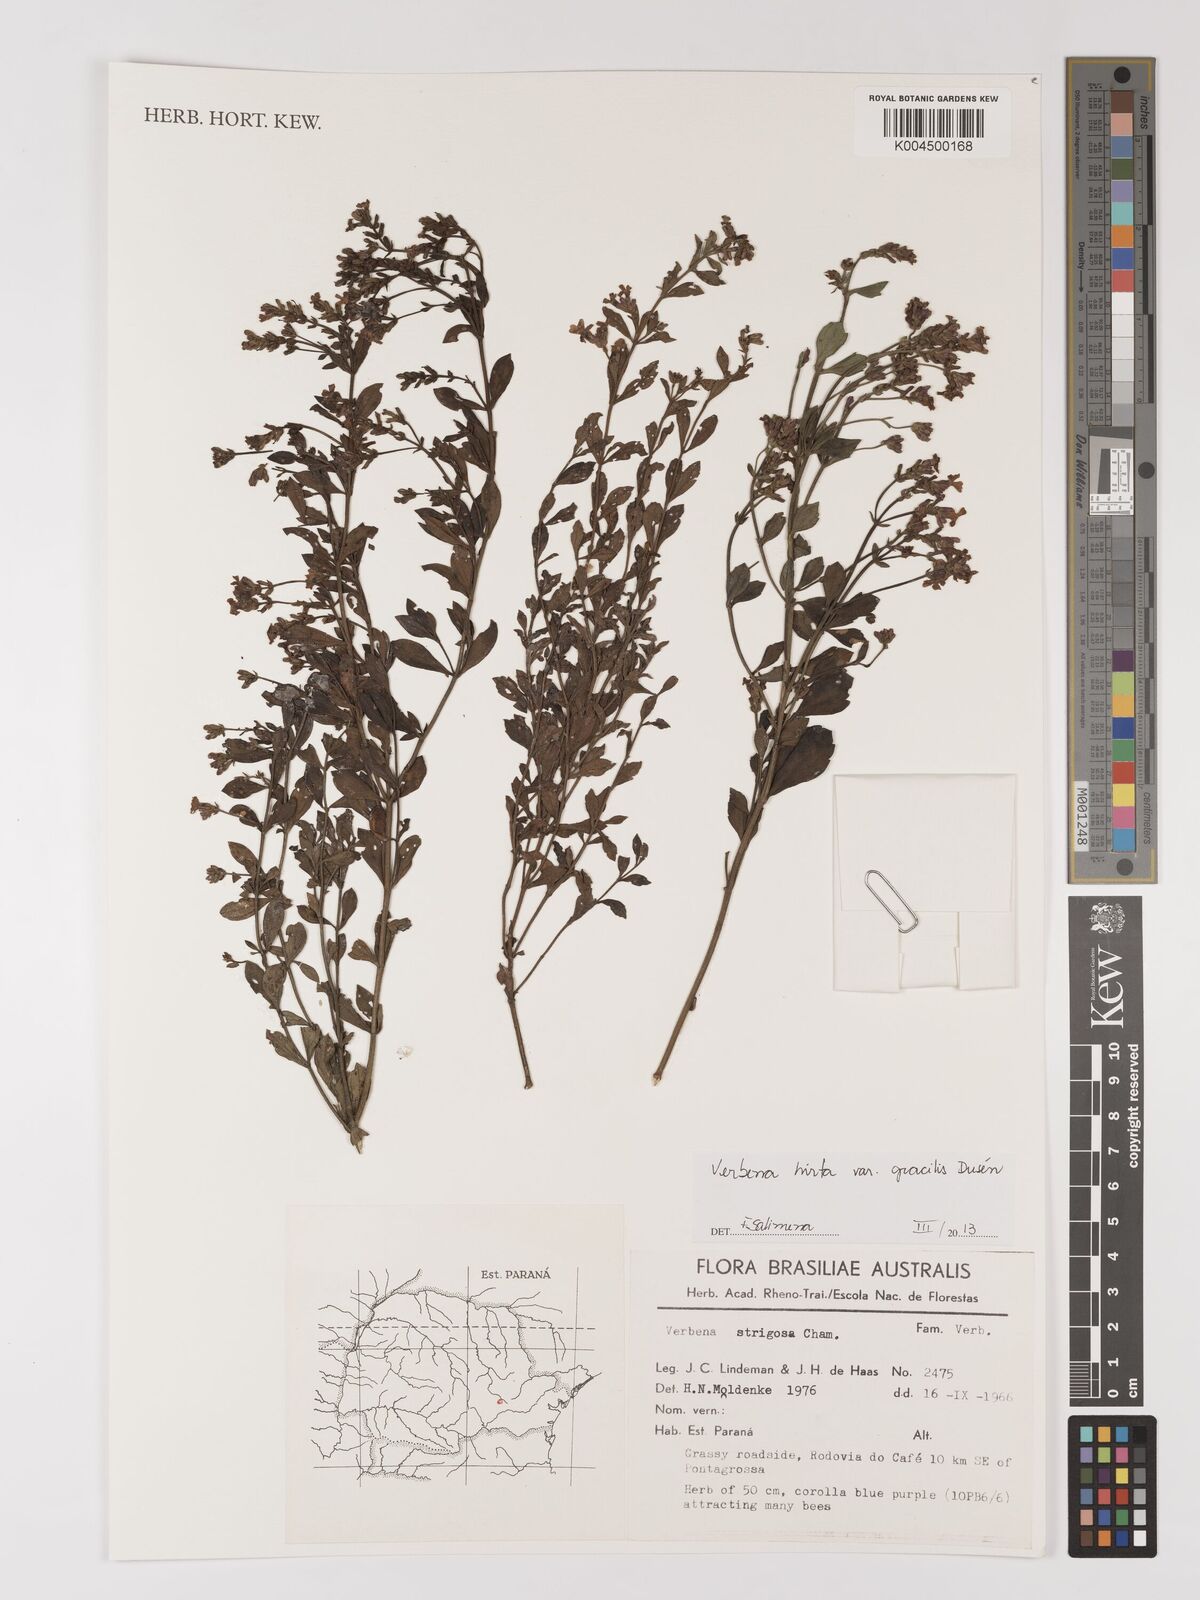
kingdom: Plantae
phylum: Tracheophyta
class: Magnoliopsida
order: Lamiales
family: Verbenaceae
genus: Verbena
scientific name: Verbena hirta
